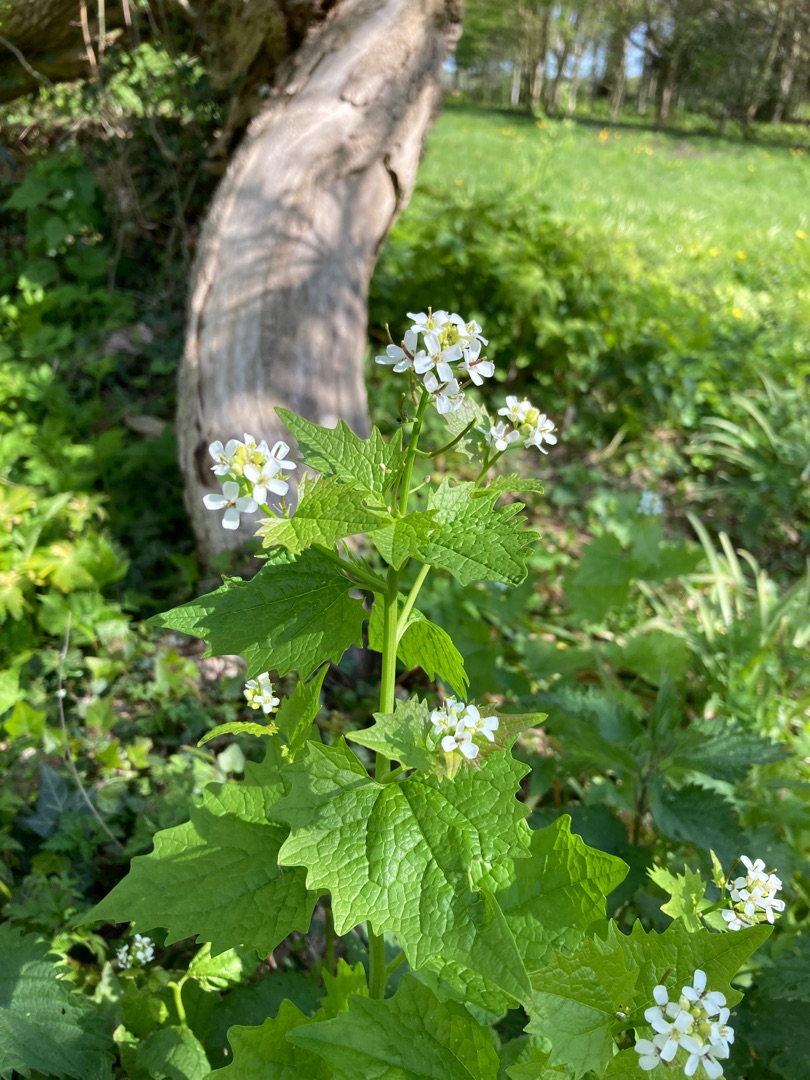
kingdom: Plantae
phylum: Tracheophyta
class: Magnoliopsida
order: Brassicales
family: Brassicaceae
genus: Alliaria
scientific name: Alliaria petiolata
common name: Løgkarse
